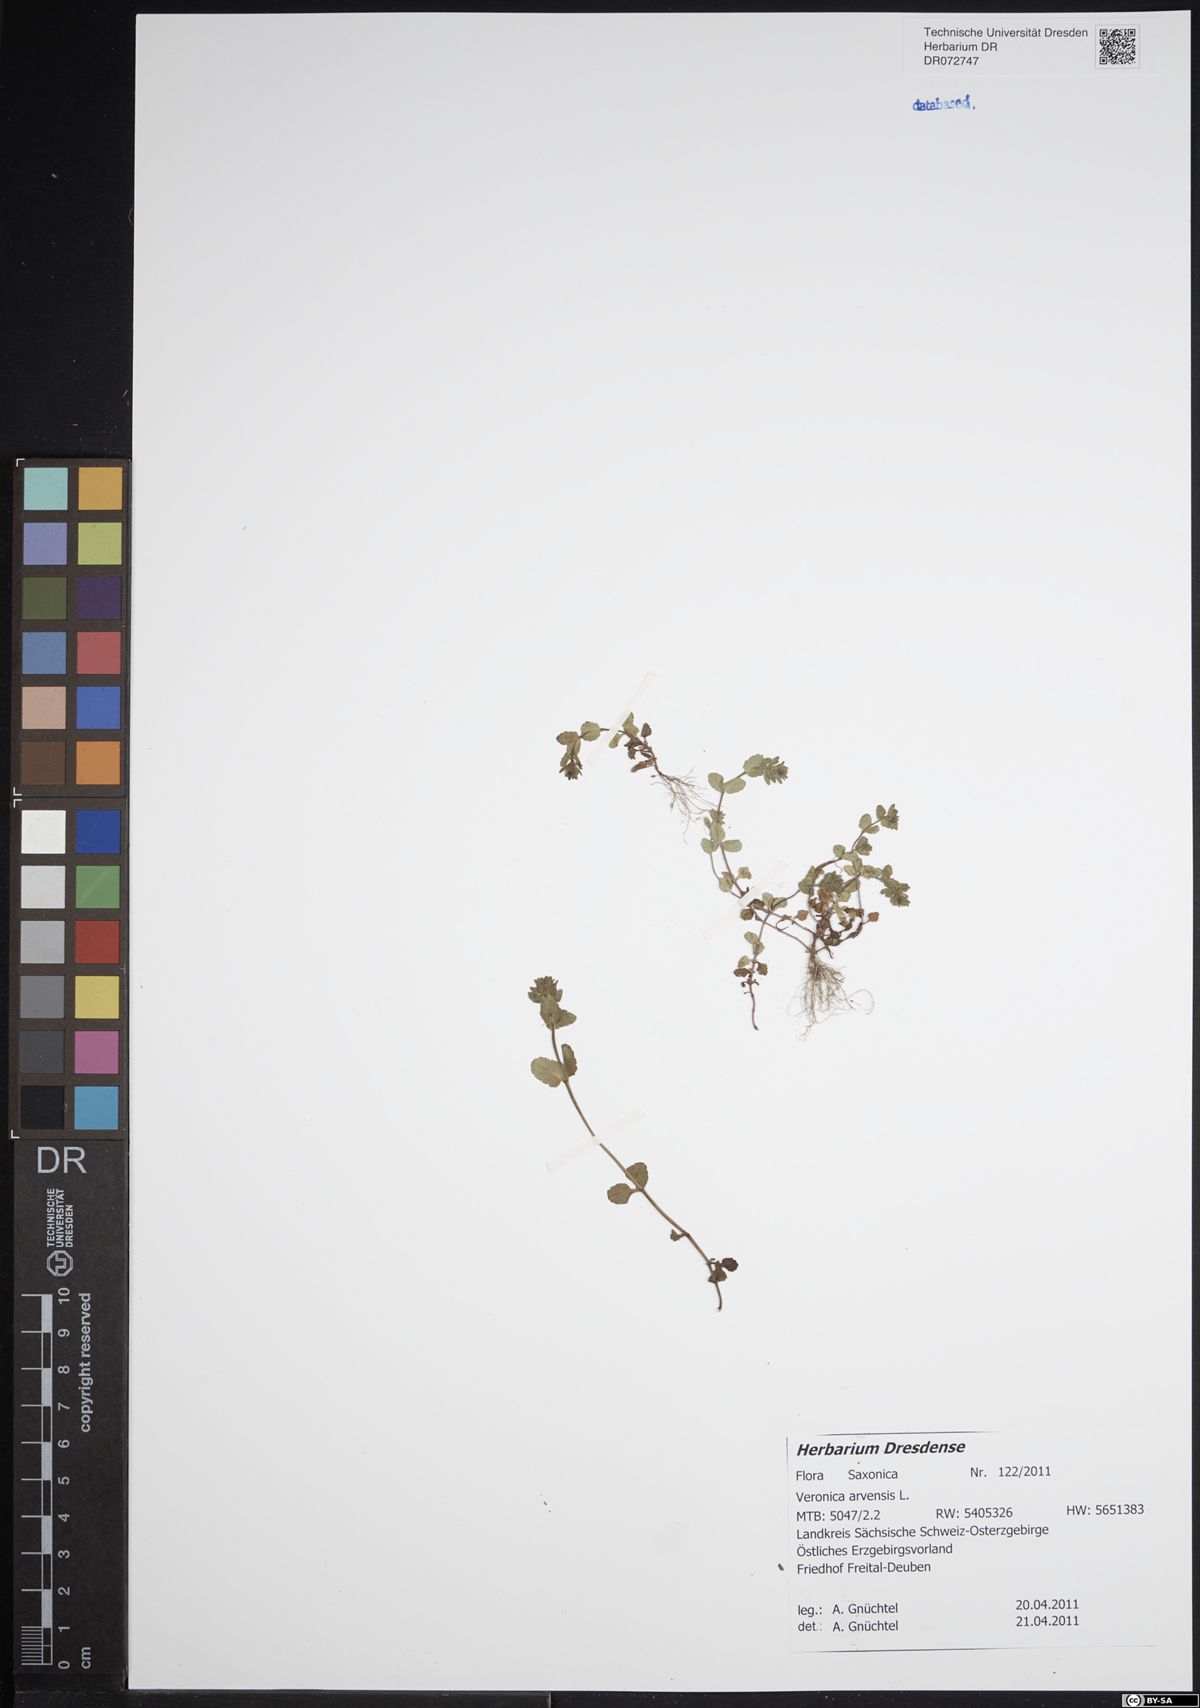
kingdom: Plantae
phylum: Tracheophyta
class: Magnoliopsida
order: Lamiales
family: Plantaginaceae
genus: Veronica
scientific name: Veronica arvensis
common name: Corn speedwell
